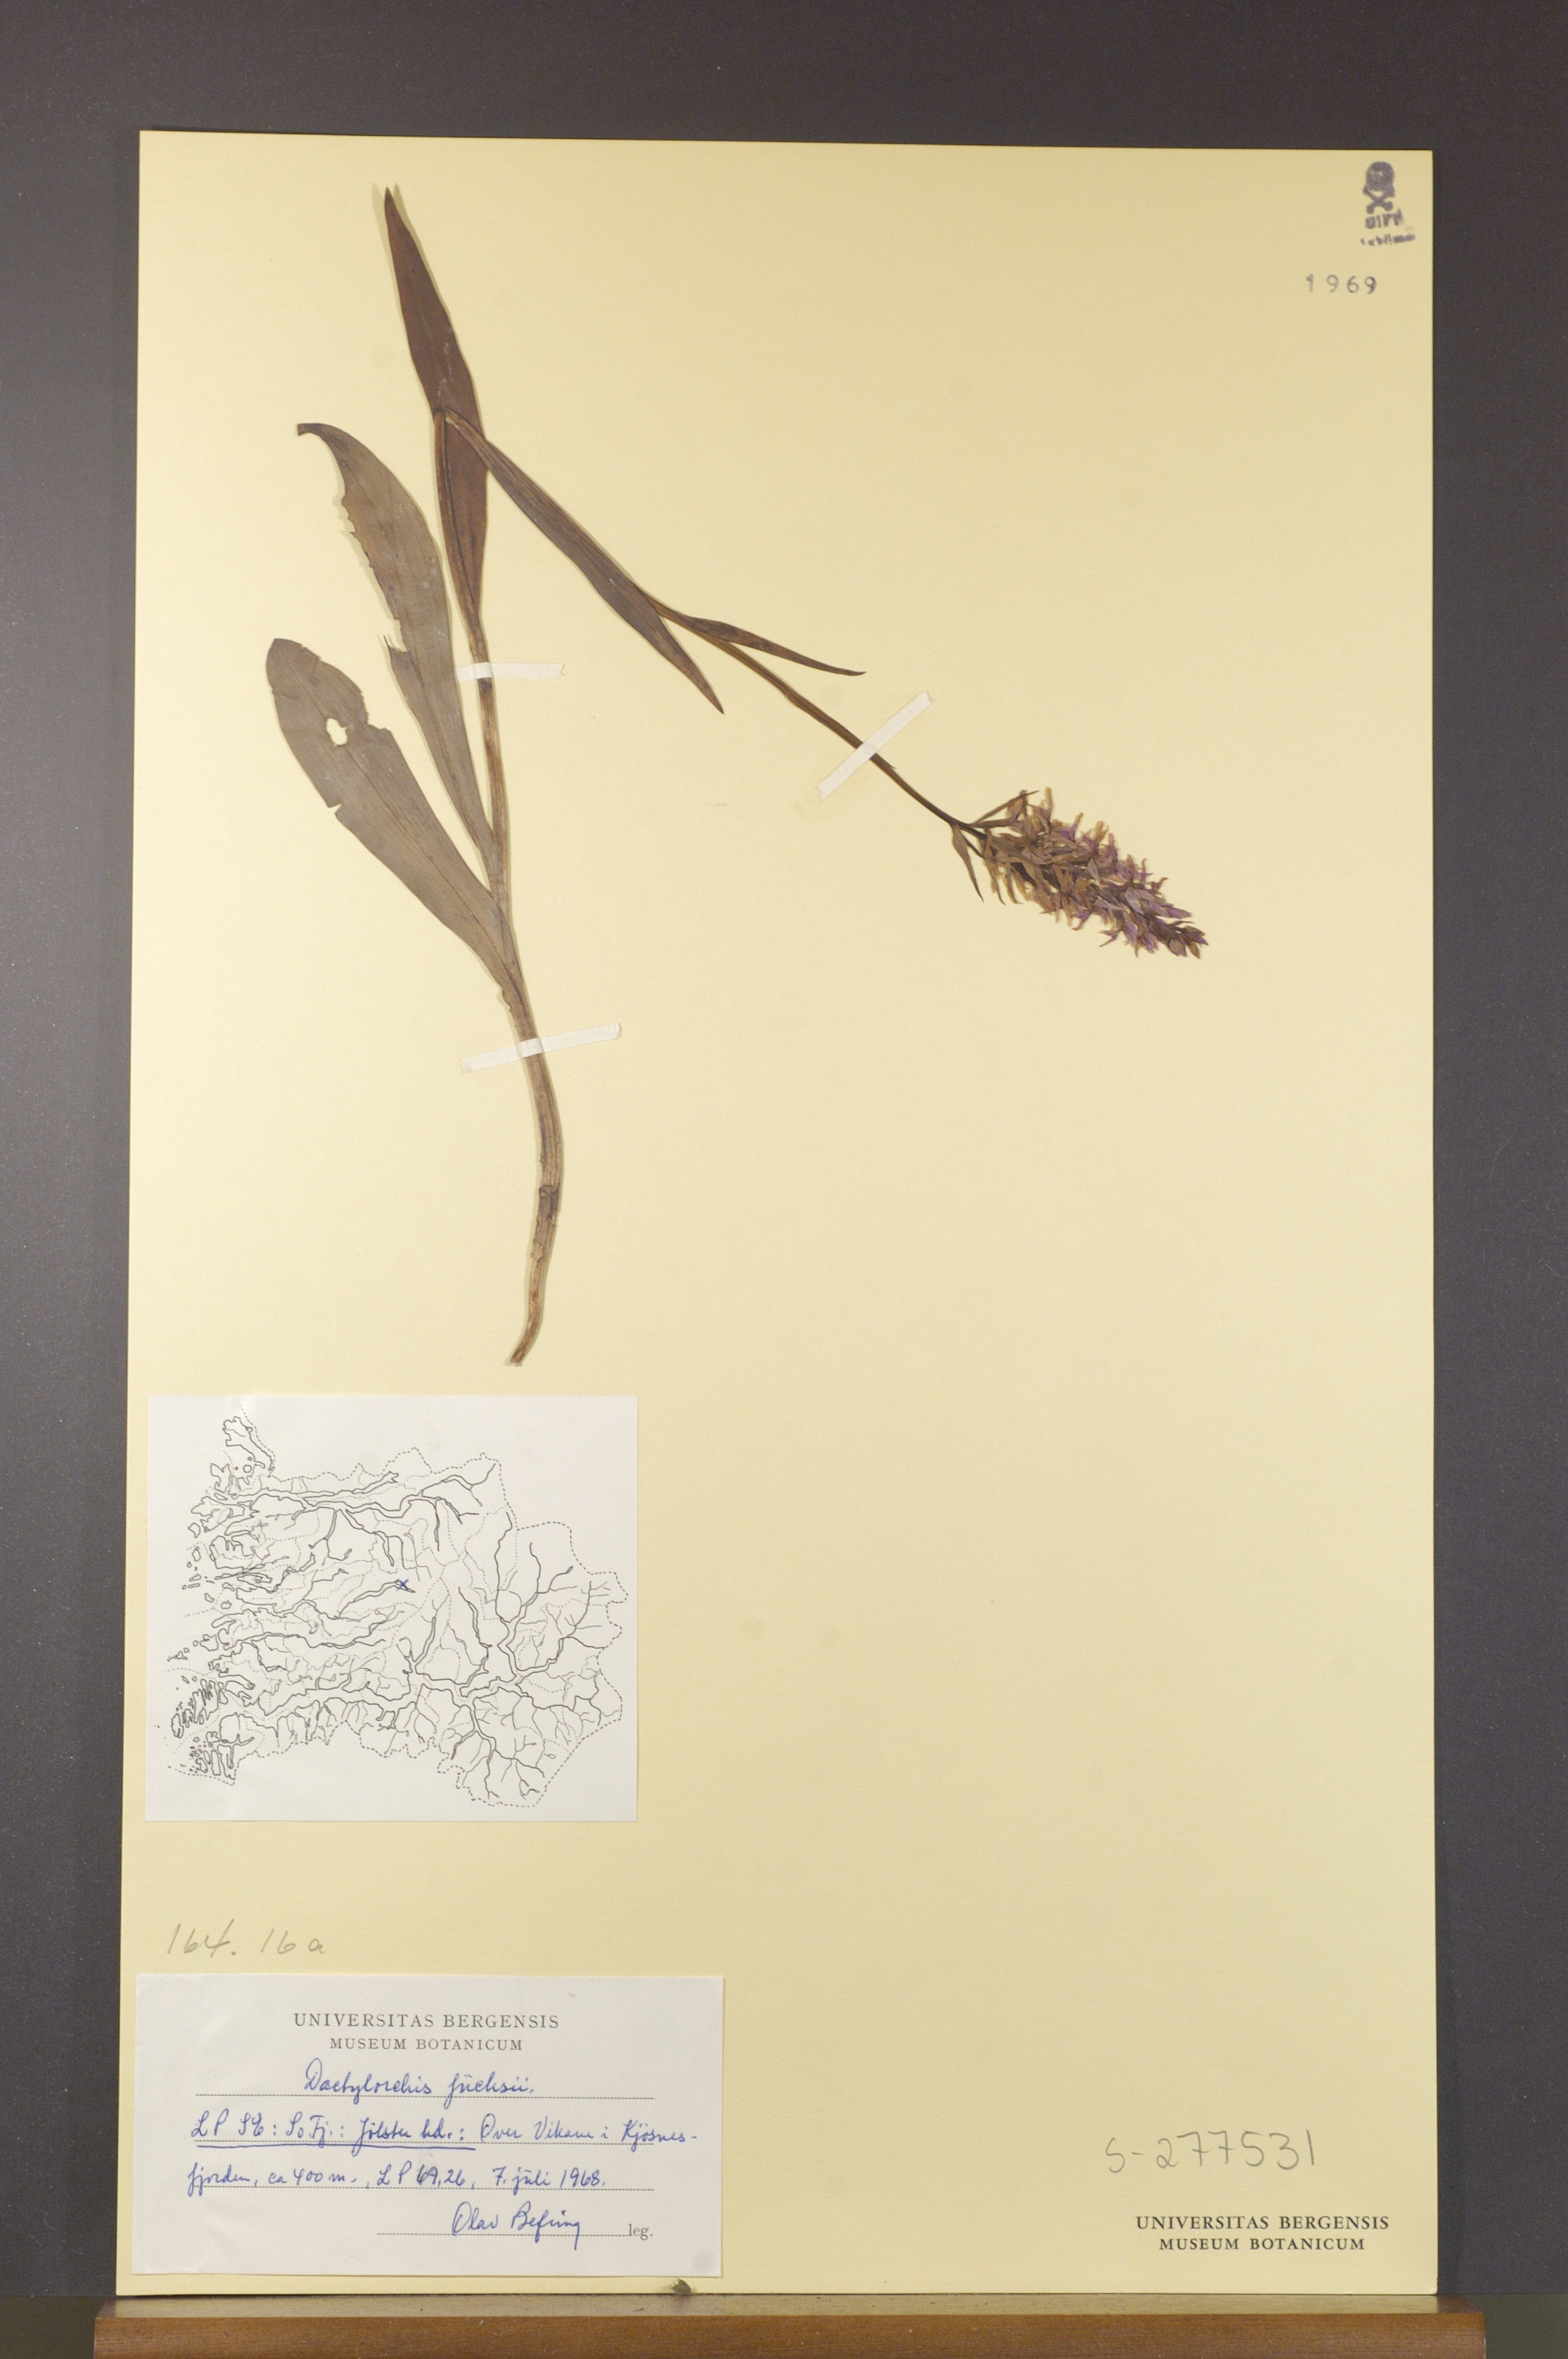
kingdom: Plantae
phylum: Tracheophyta
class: Liliopsida
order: Asparagales
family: Orchidaceae
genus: Dactylorhiza
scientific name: Dactylorhiza maculata
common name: Heath spotted-orchid
